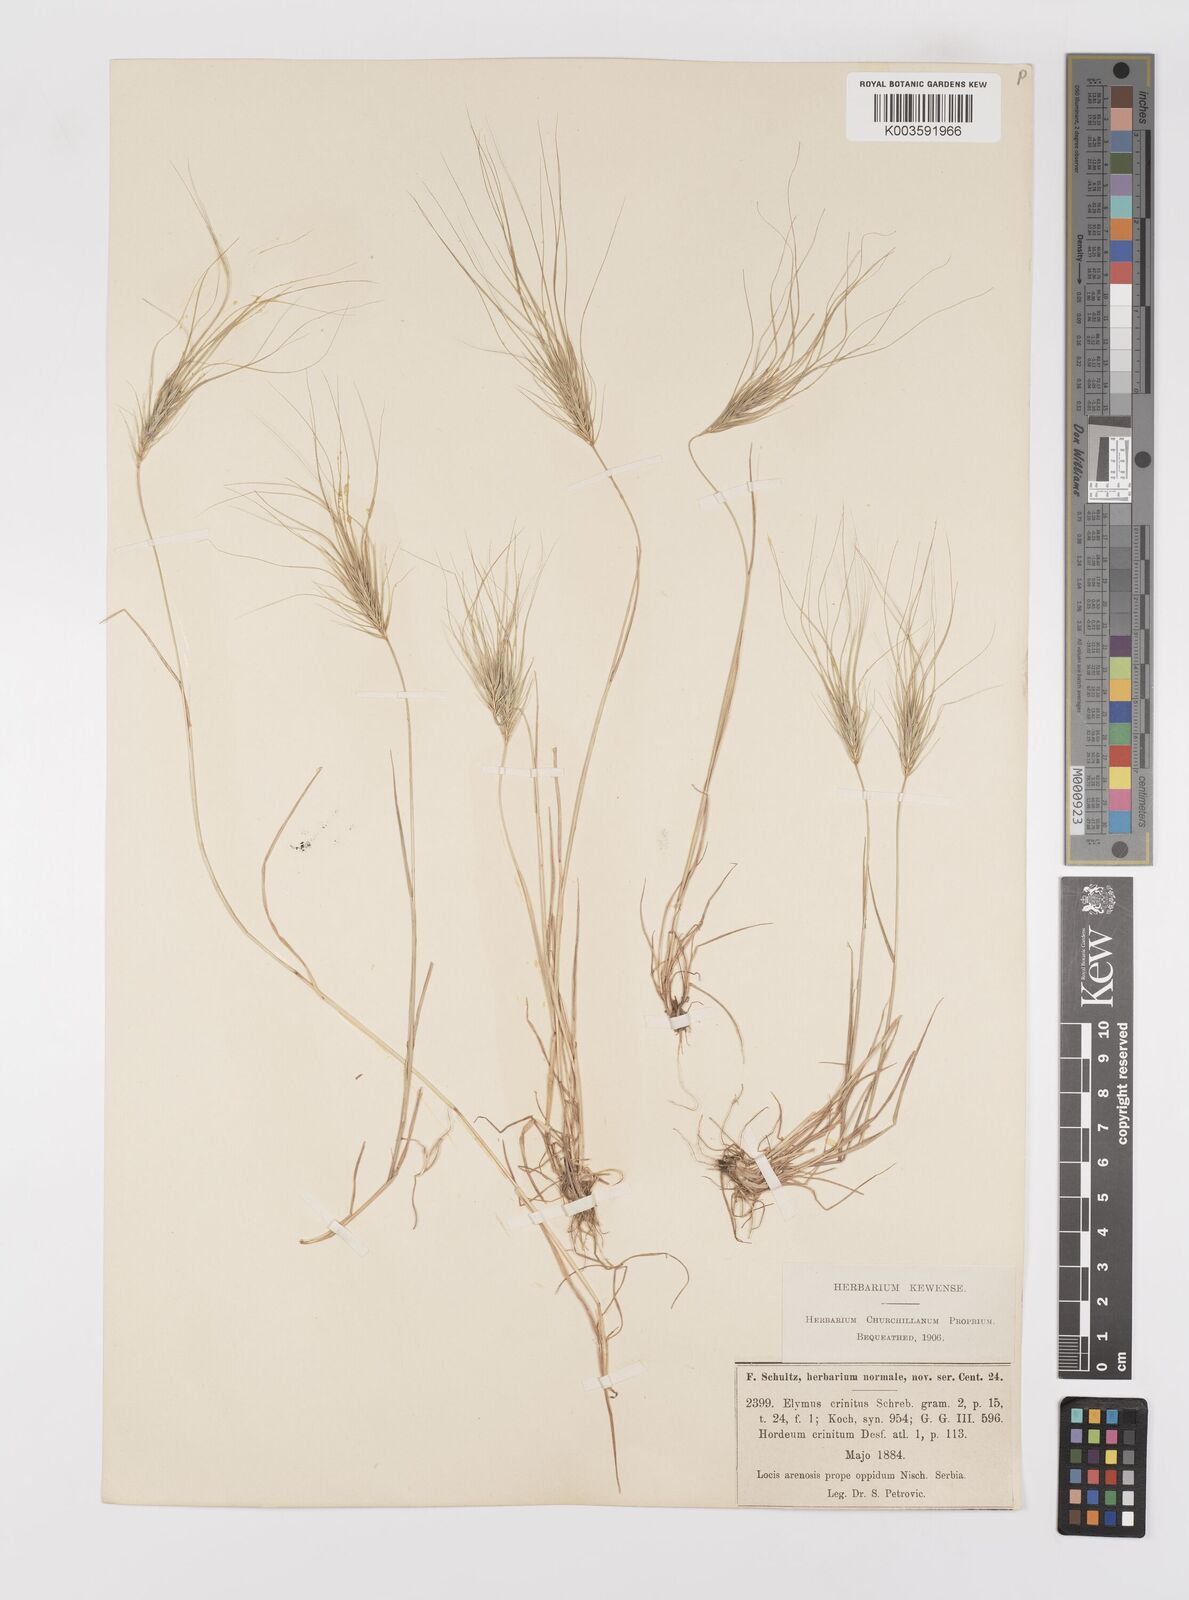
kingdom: Plantae
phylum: Tracheophyta
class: Liliopsida
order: Poales
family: Poaceae
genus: Taeniatherum
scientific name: Taeniatherum caput-medusae
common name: Medusahead
